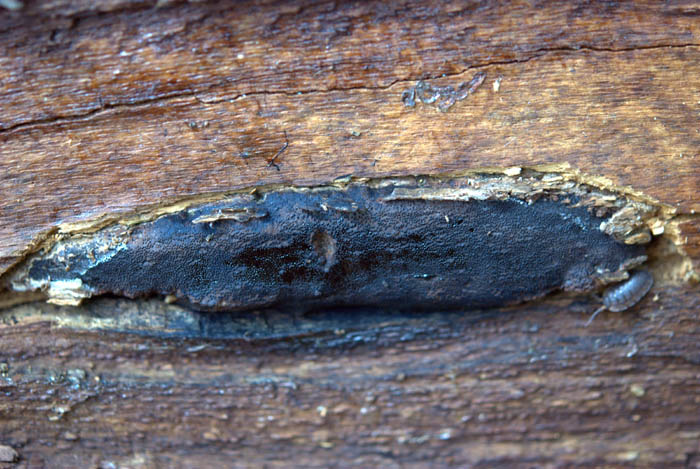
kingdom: Fungi
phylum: Ascomycota
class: Sordariomycetes
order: Boliniales
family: Boliniaceae
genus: Camarops
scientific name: Camarops tubulina
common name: knudret kulsnegl
